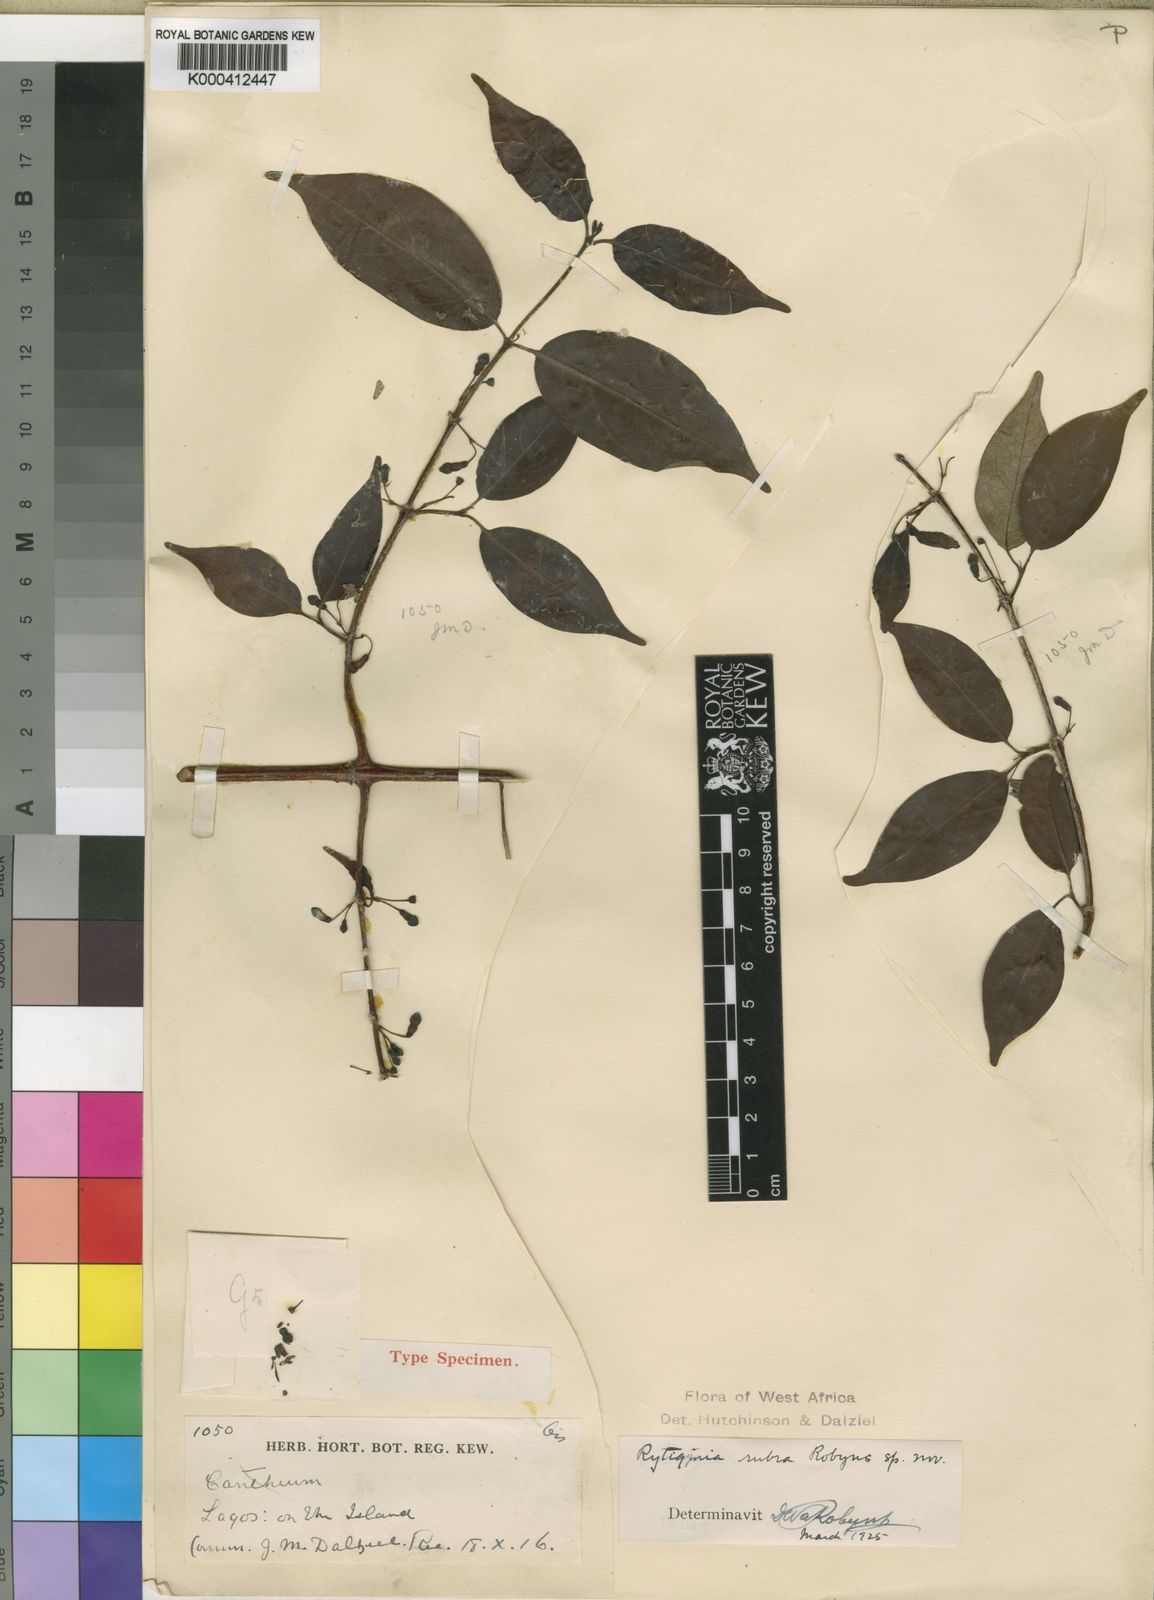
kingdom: Plantae
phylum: Tracheophyta
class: Magnoliopsida
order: Gentianales
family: Rubiaceae
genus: Rytigynia
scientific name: Rytigynia rubra
